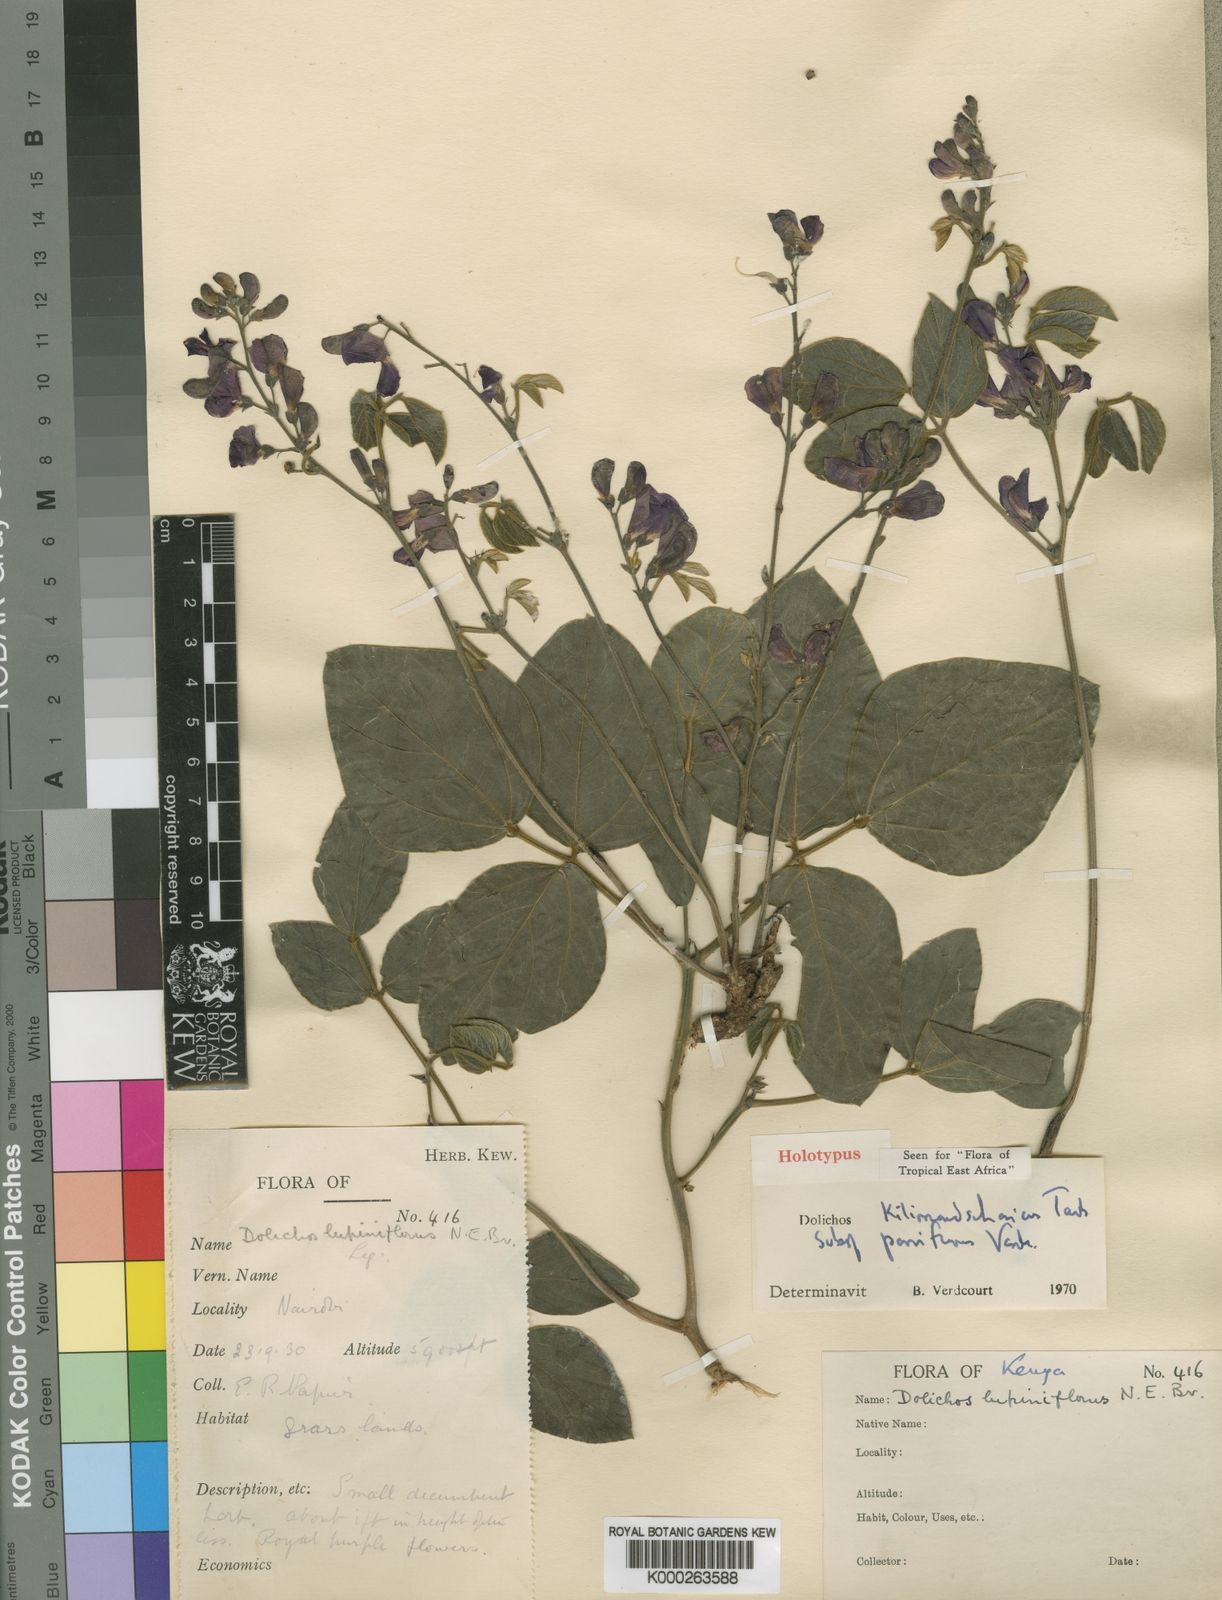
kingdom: Plantae
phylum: Tracheophyta
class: Magnoliopsida
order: Fabales
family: Fabaceae
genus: Dolichos
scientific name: Dolichos kilimandscharicus
